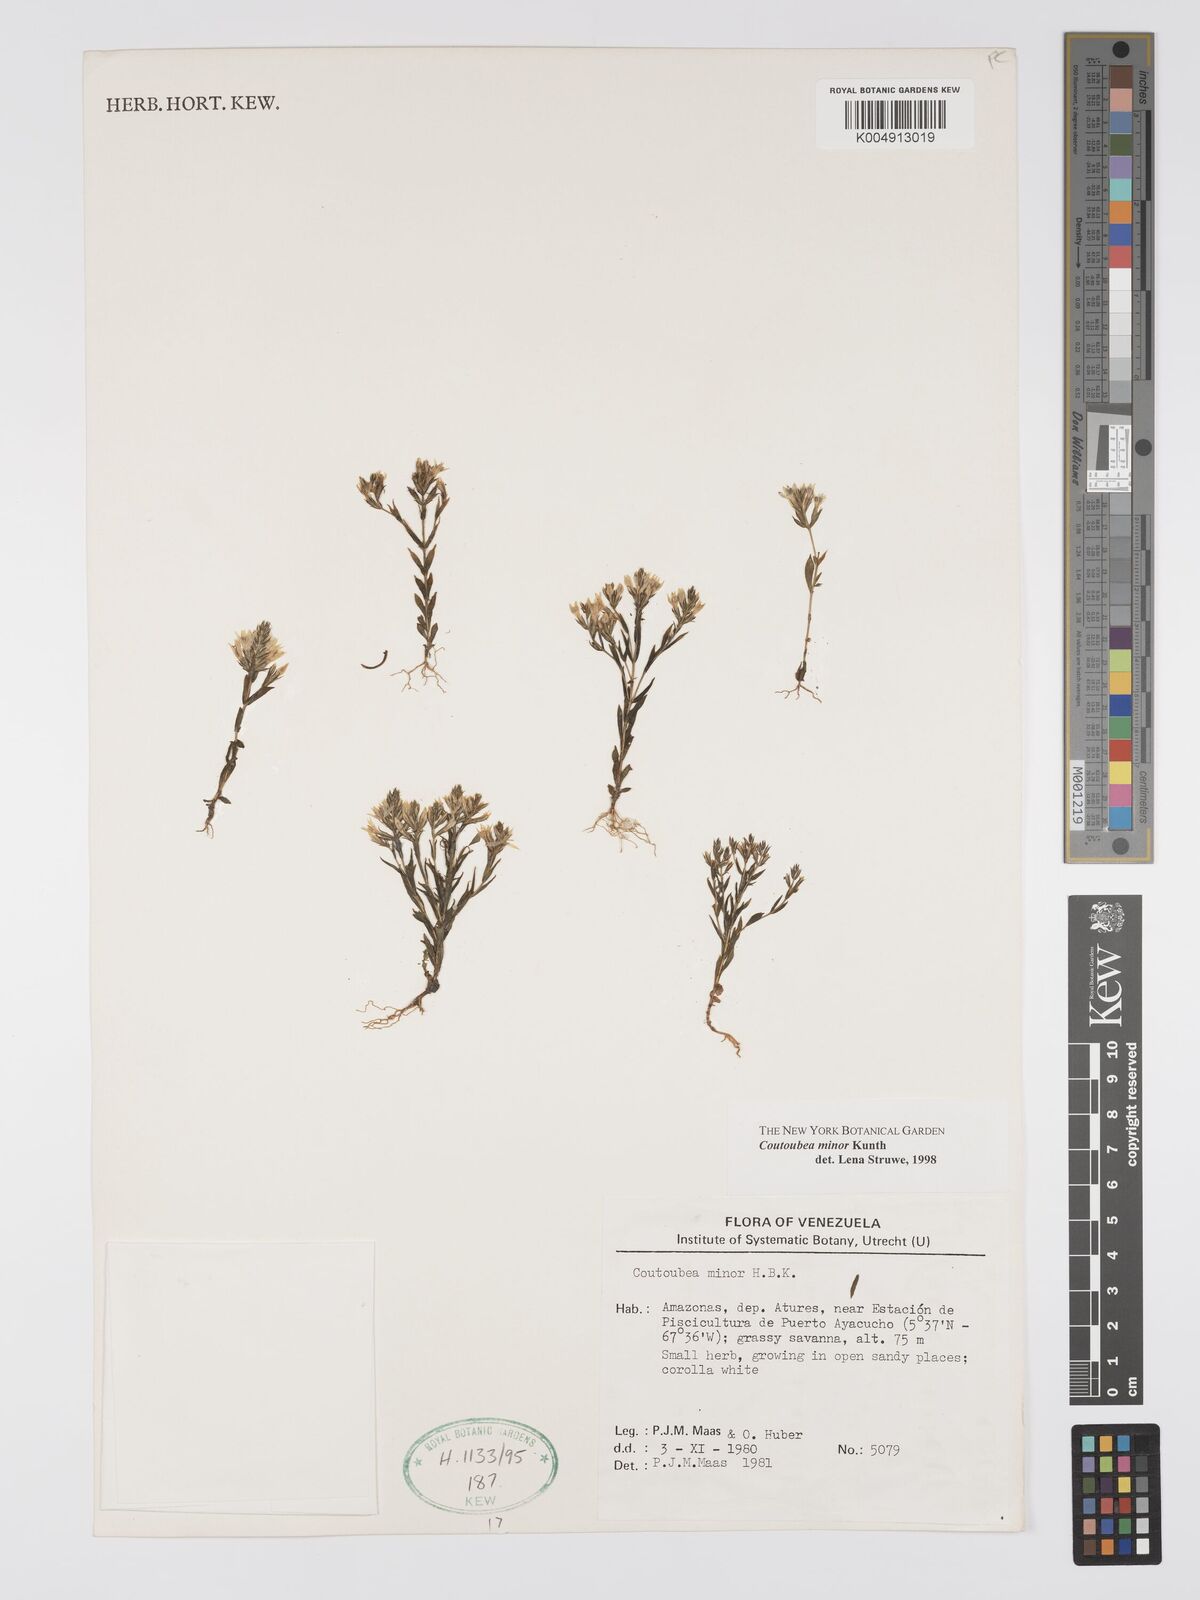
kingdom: Plantae
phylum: Tracheophyta
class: Magnoliopsida
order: Gentianales
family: Gentianaceae
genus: Coutoubea
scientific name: Coutoubea minor
